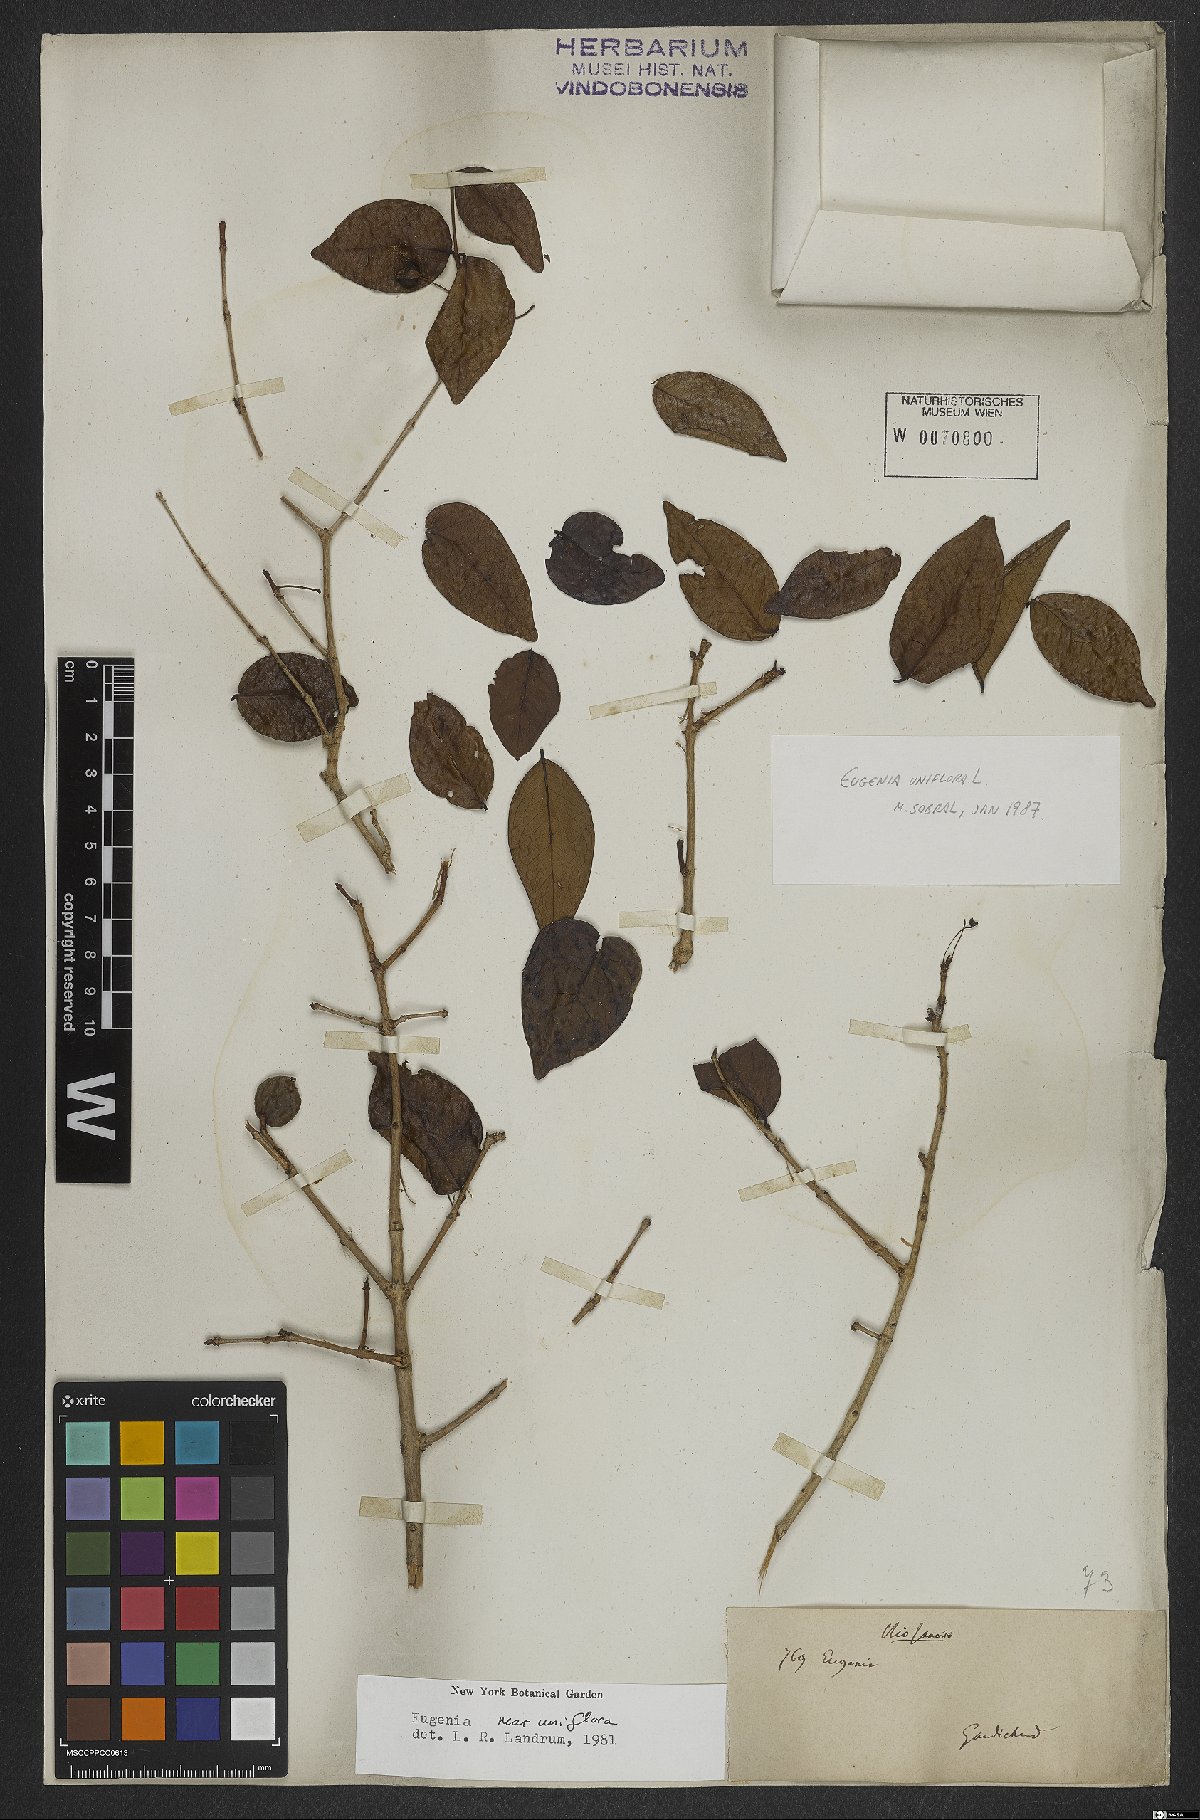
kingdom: Plantae
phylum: Tracheophyta
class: Magnoliopsida
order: Myrtales
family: Myrtaceae
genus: Eugenia
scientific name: Eugenia uniflora
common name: Surinam cherry
